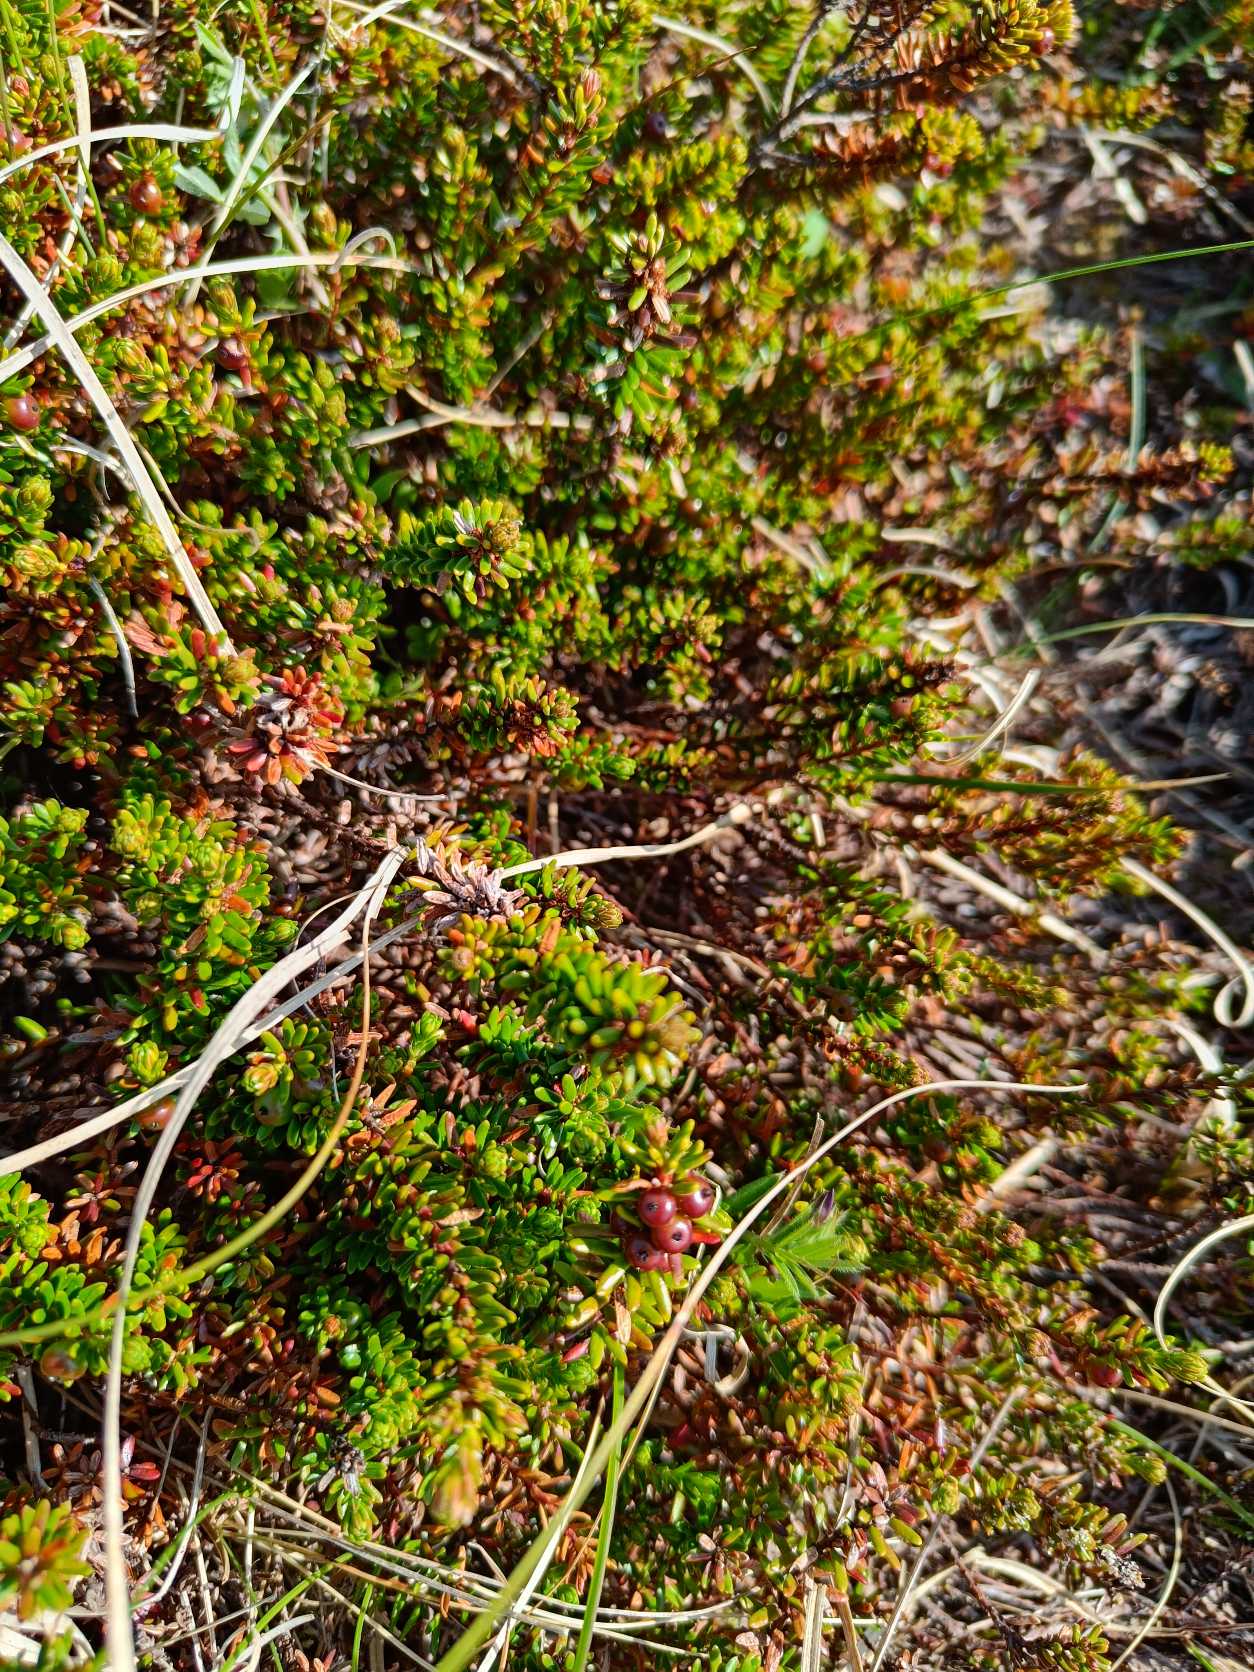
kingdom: Plantae
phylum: Tracheophyta
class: Magnoliopsida
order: Ericales
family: Ericaceae
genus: Empetrum
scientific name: Empetrum nigrum
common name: Revling
